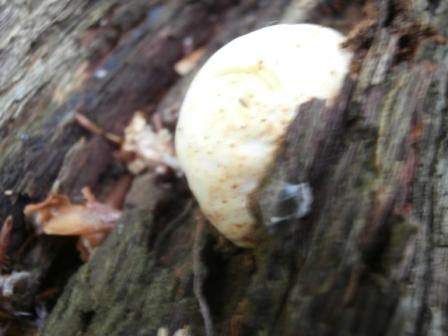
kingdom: Fungi
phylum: Basidiomycota
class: Agaricomycetes
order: Polyporales
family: Fomitopsidaceae
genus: Buglossoporus
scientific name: Buglossoporus quercinus
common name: egetunge
